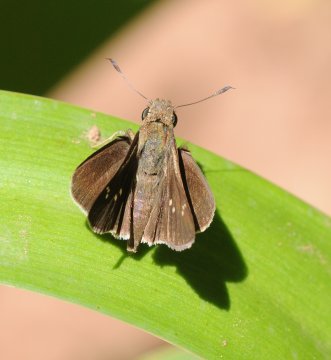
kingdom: Animalia
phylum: Arthropoda
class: Insecta
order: Lepidoptera
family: Hesperiidae
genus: Baoris
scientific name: Baoris fatuellus
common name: Long-horned Swift
